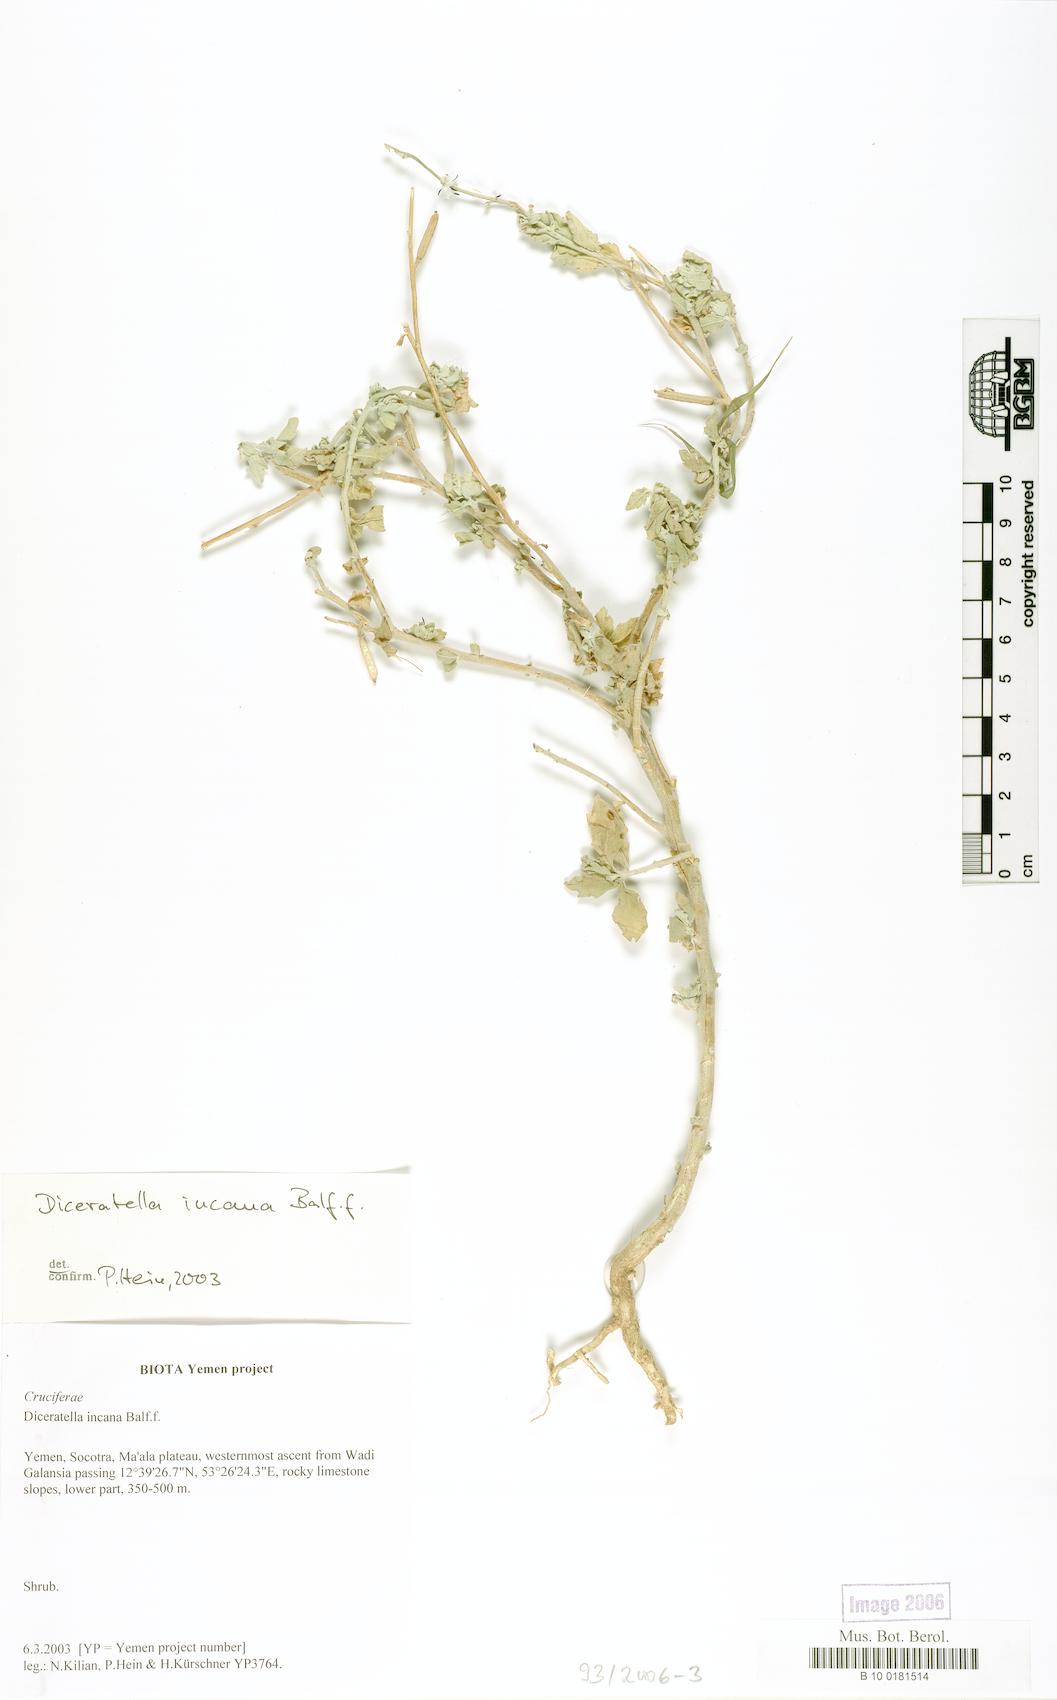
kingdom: Plantae
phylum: Tracheophyta
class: Magnoliopsida
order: Brassicales
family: Brassicaceae
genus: Diceratella
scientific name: Diceratella incana
